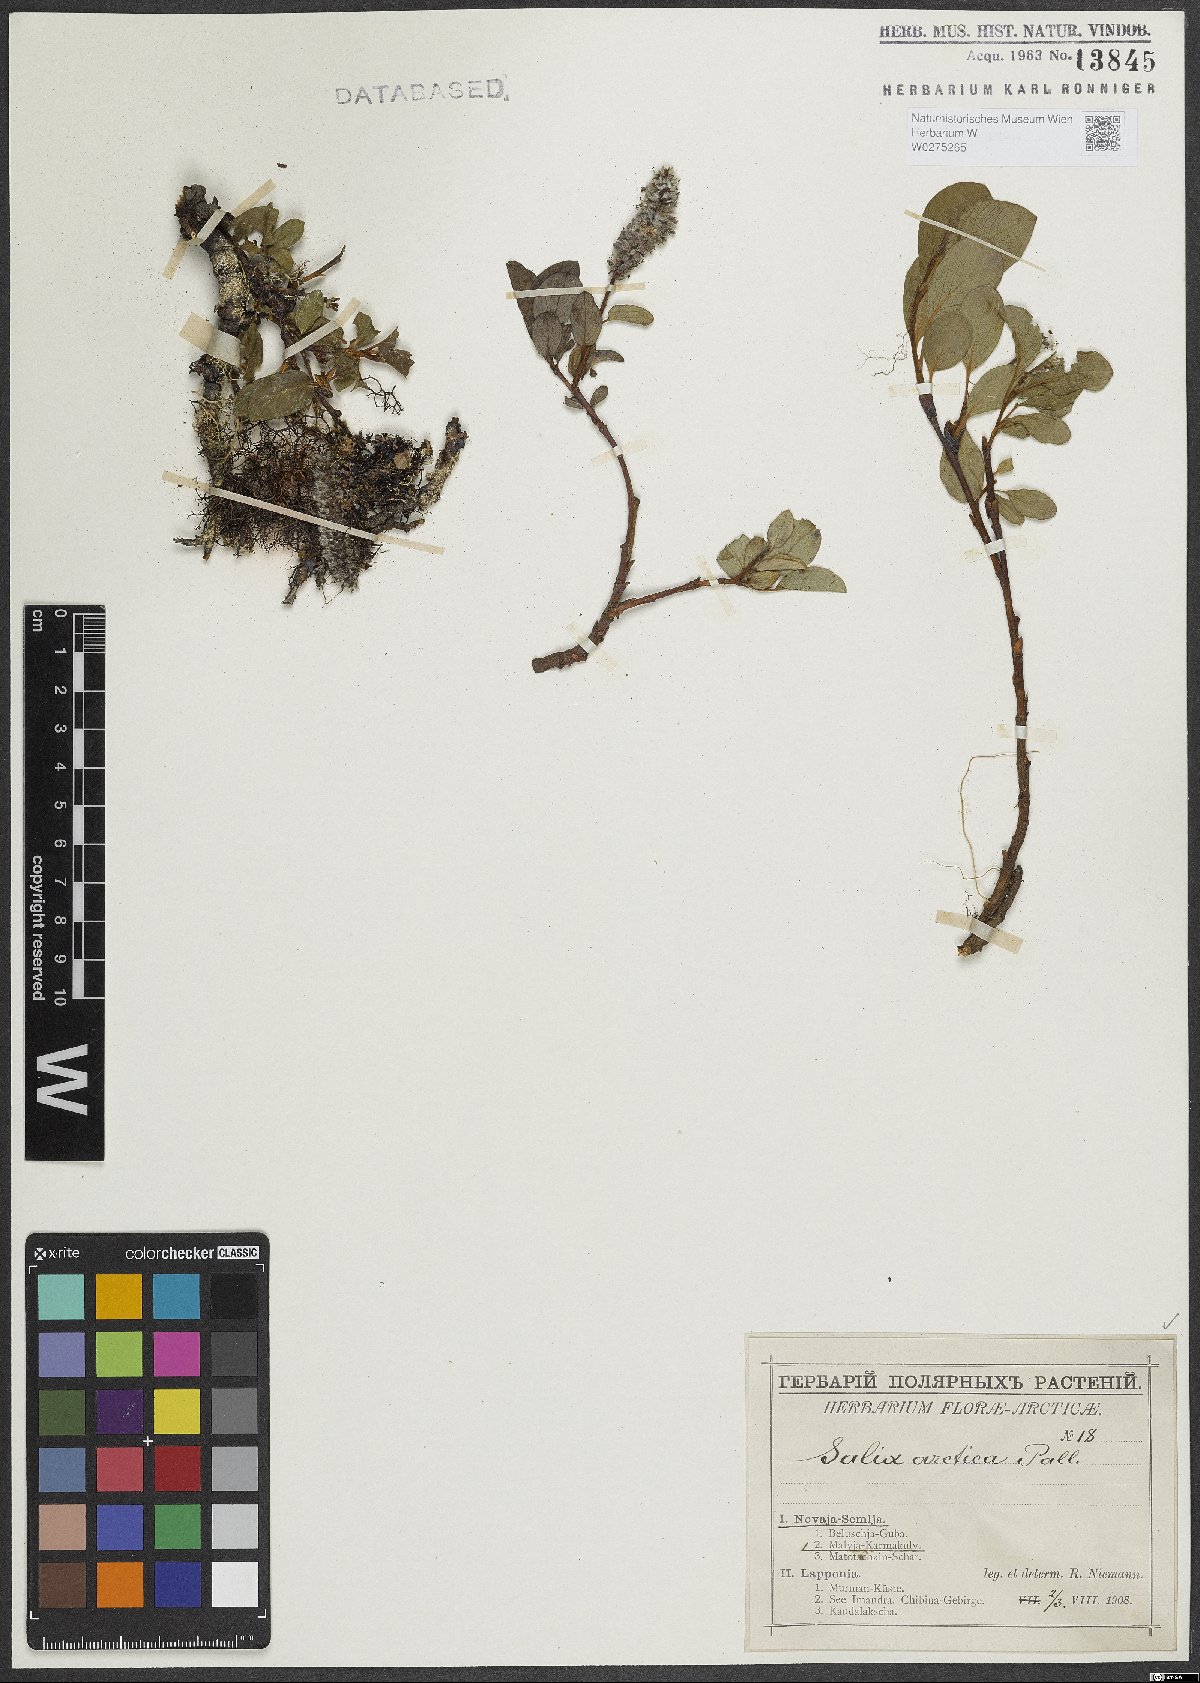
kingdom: Plantae
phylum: Tracheophyta
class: Magnoliopsida
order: Malpighiales
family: Salicaceae
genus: Salix
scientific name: Salix arctica
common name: Arctic willow
